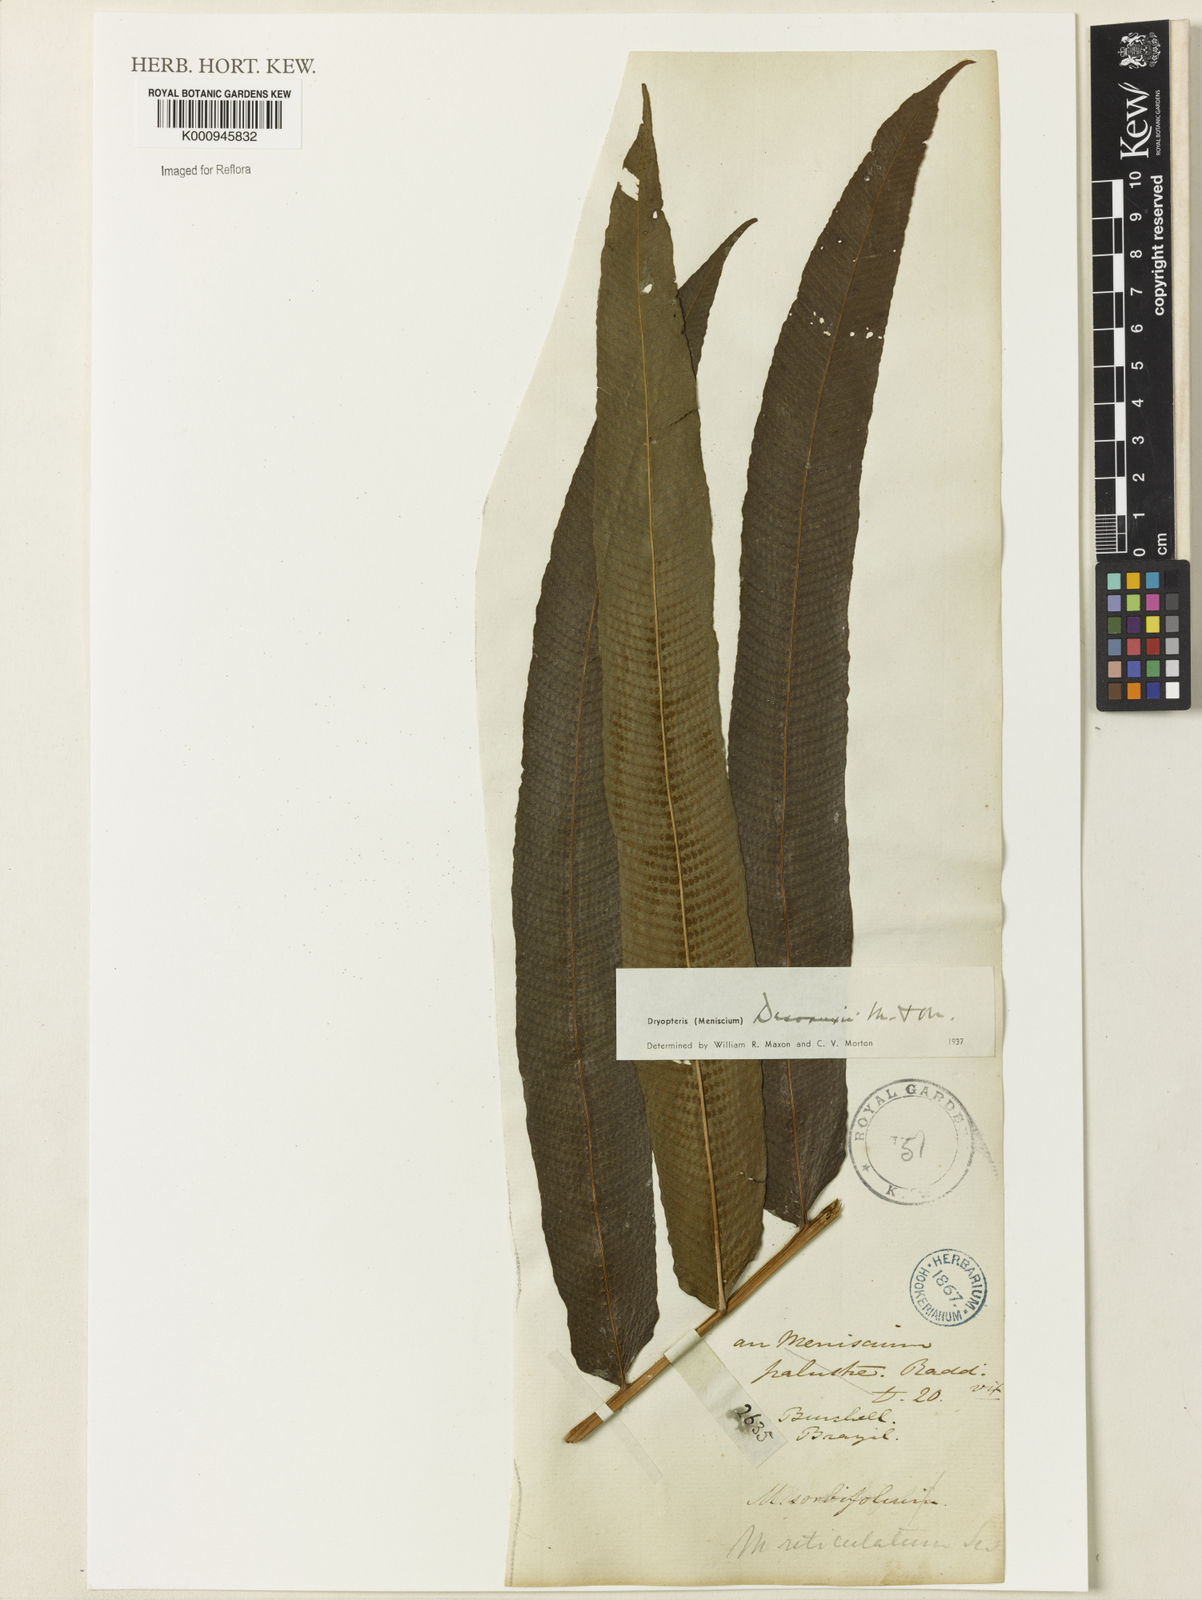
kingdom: Plantae
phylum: Tracheophyta
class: Polypodiopsida
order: Polypodiales
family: Thelypteridaceae
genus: Meniscium
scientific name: Meniscium longifolium
